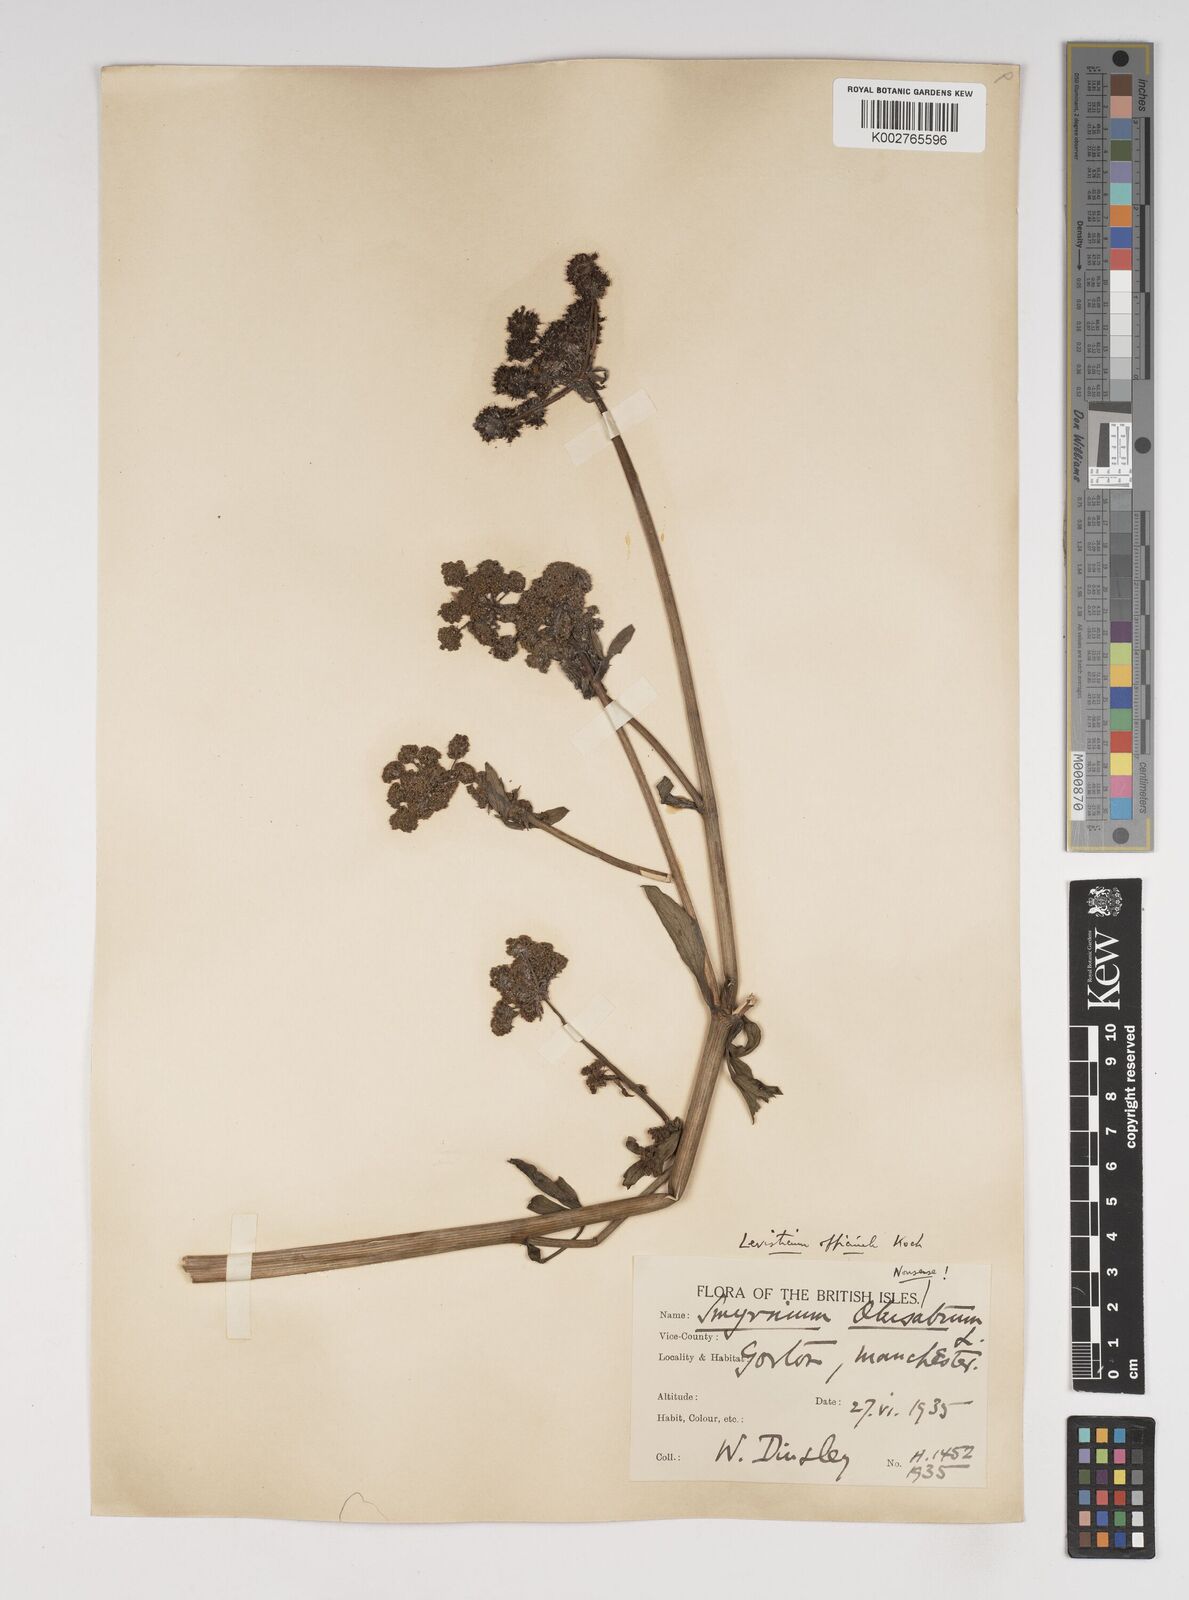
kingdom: Plantae
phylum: Tracheophyta
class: Magnoliopsida
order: Apiales
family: Apiaceae
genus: Levisticum
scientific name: Levisticum officinale
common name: Lovage
